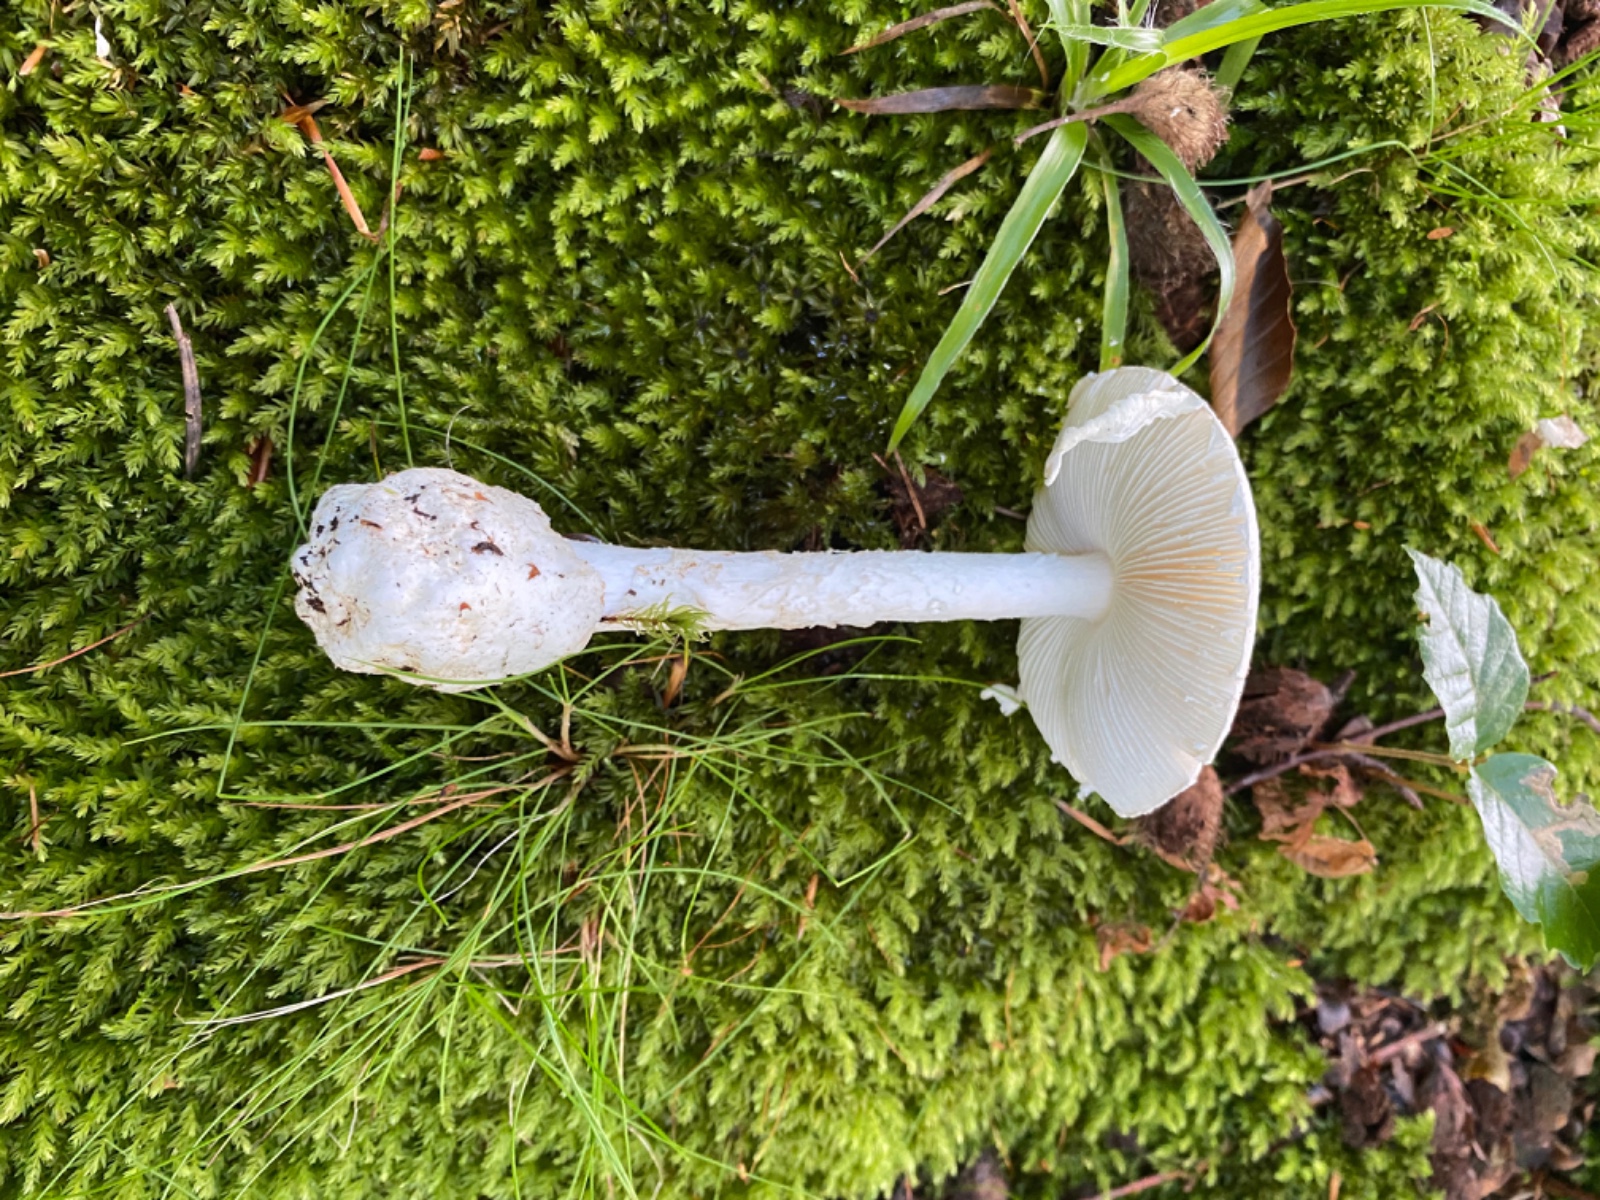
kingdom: Fungi
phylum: Basidiomycota
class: Agaricomycetes
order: Agaricales
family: Amanitaceae
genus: Amanita
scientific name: Amanita
